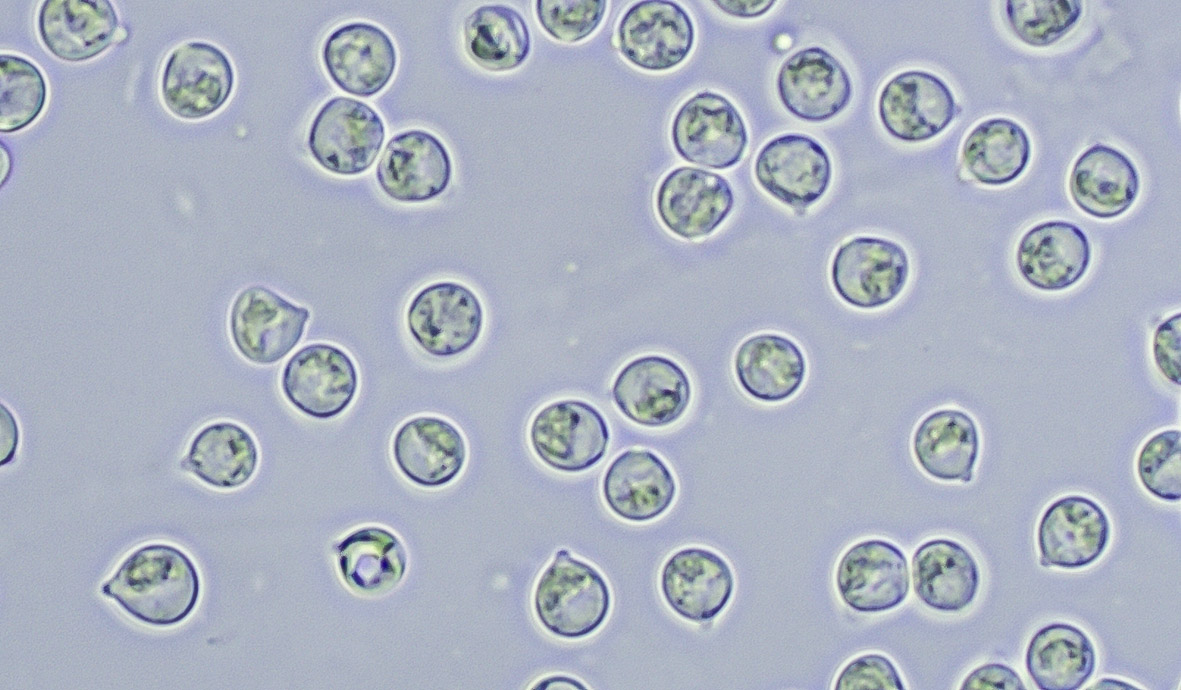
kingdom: Fungi
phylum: Basidiomycota
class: Agaricomycetes
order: Trechisporales
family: Hydnodontaceae
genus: Brevicellicium
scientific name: Brevicellicium olivascens
